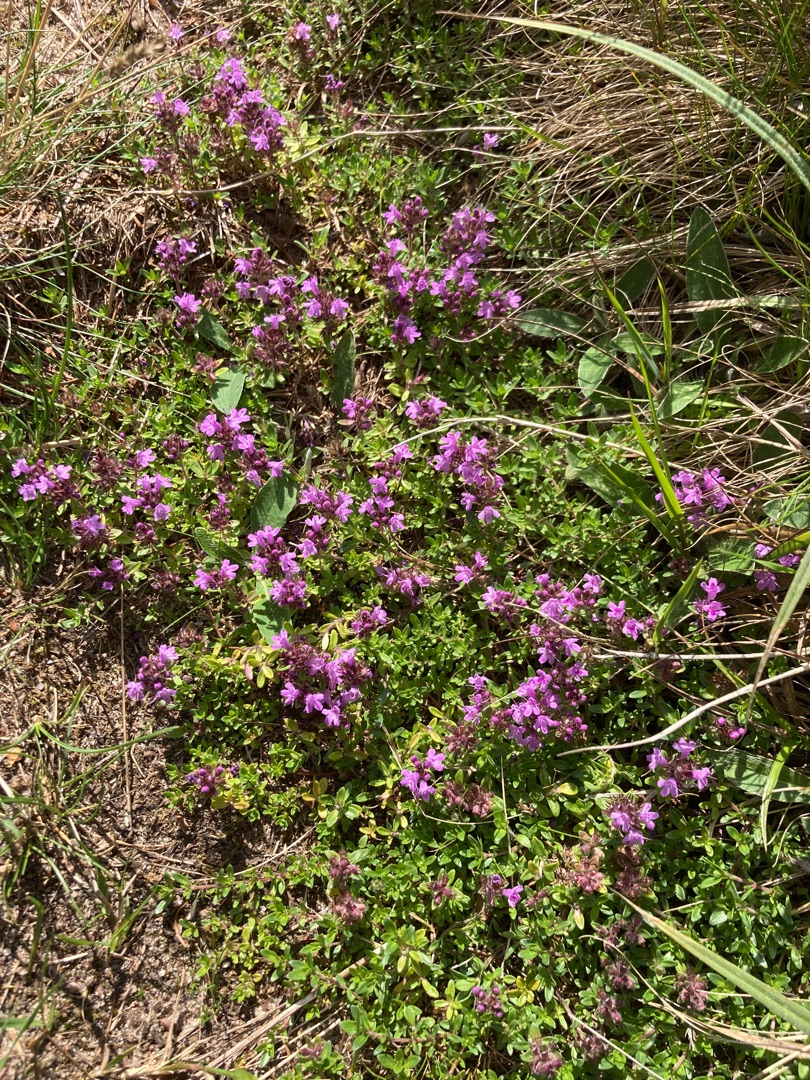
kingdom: Plantae
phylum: Tracheophyta
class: Magnoliopsida
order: Lamiales
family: Lamiaceae
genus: Thymus
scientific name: Thymus serpyllum
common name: Smalbladet timian
